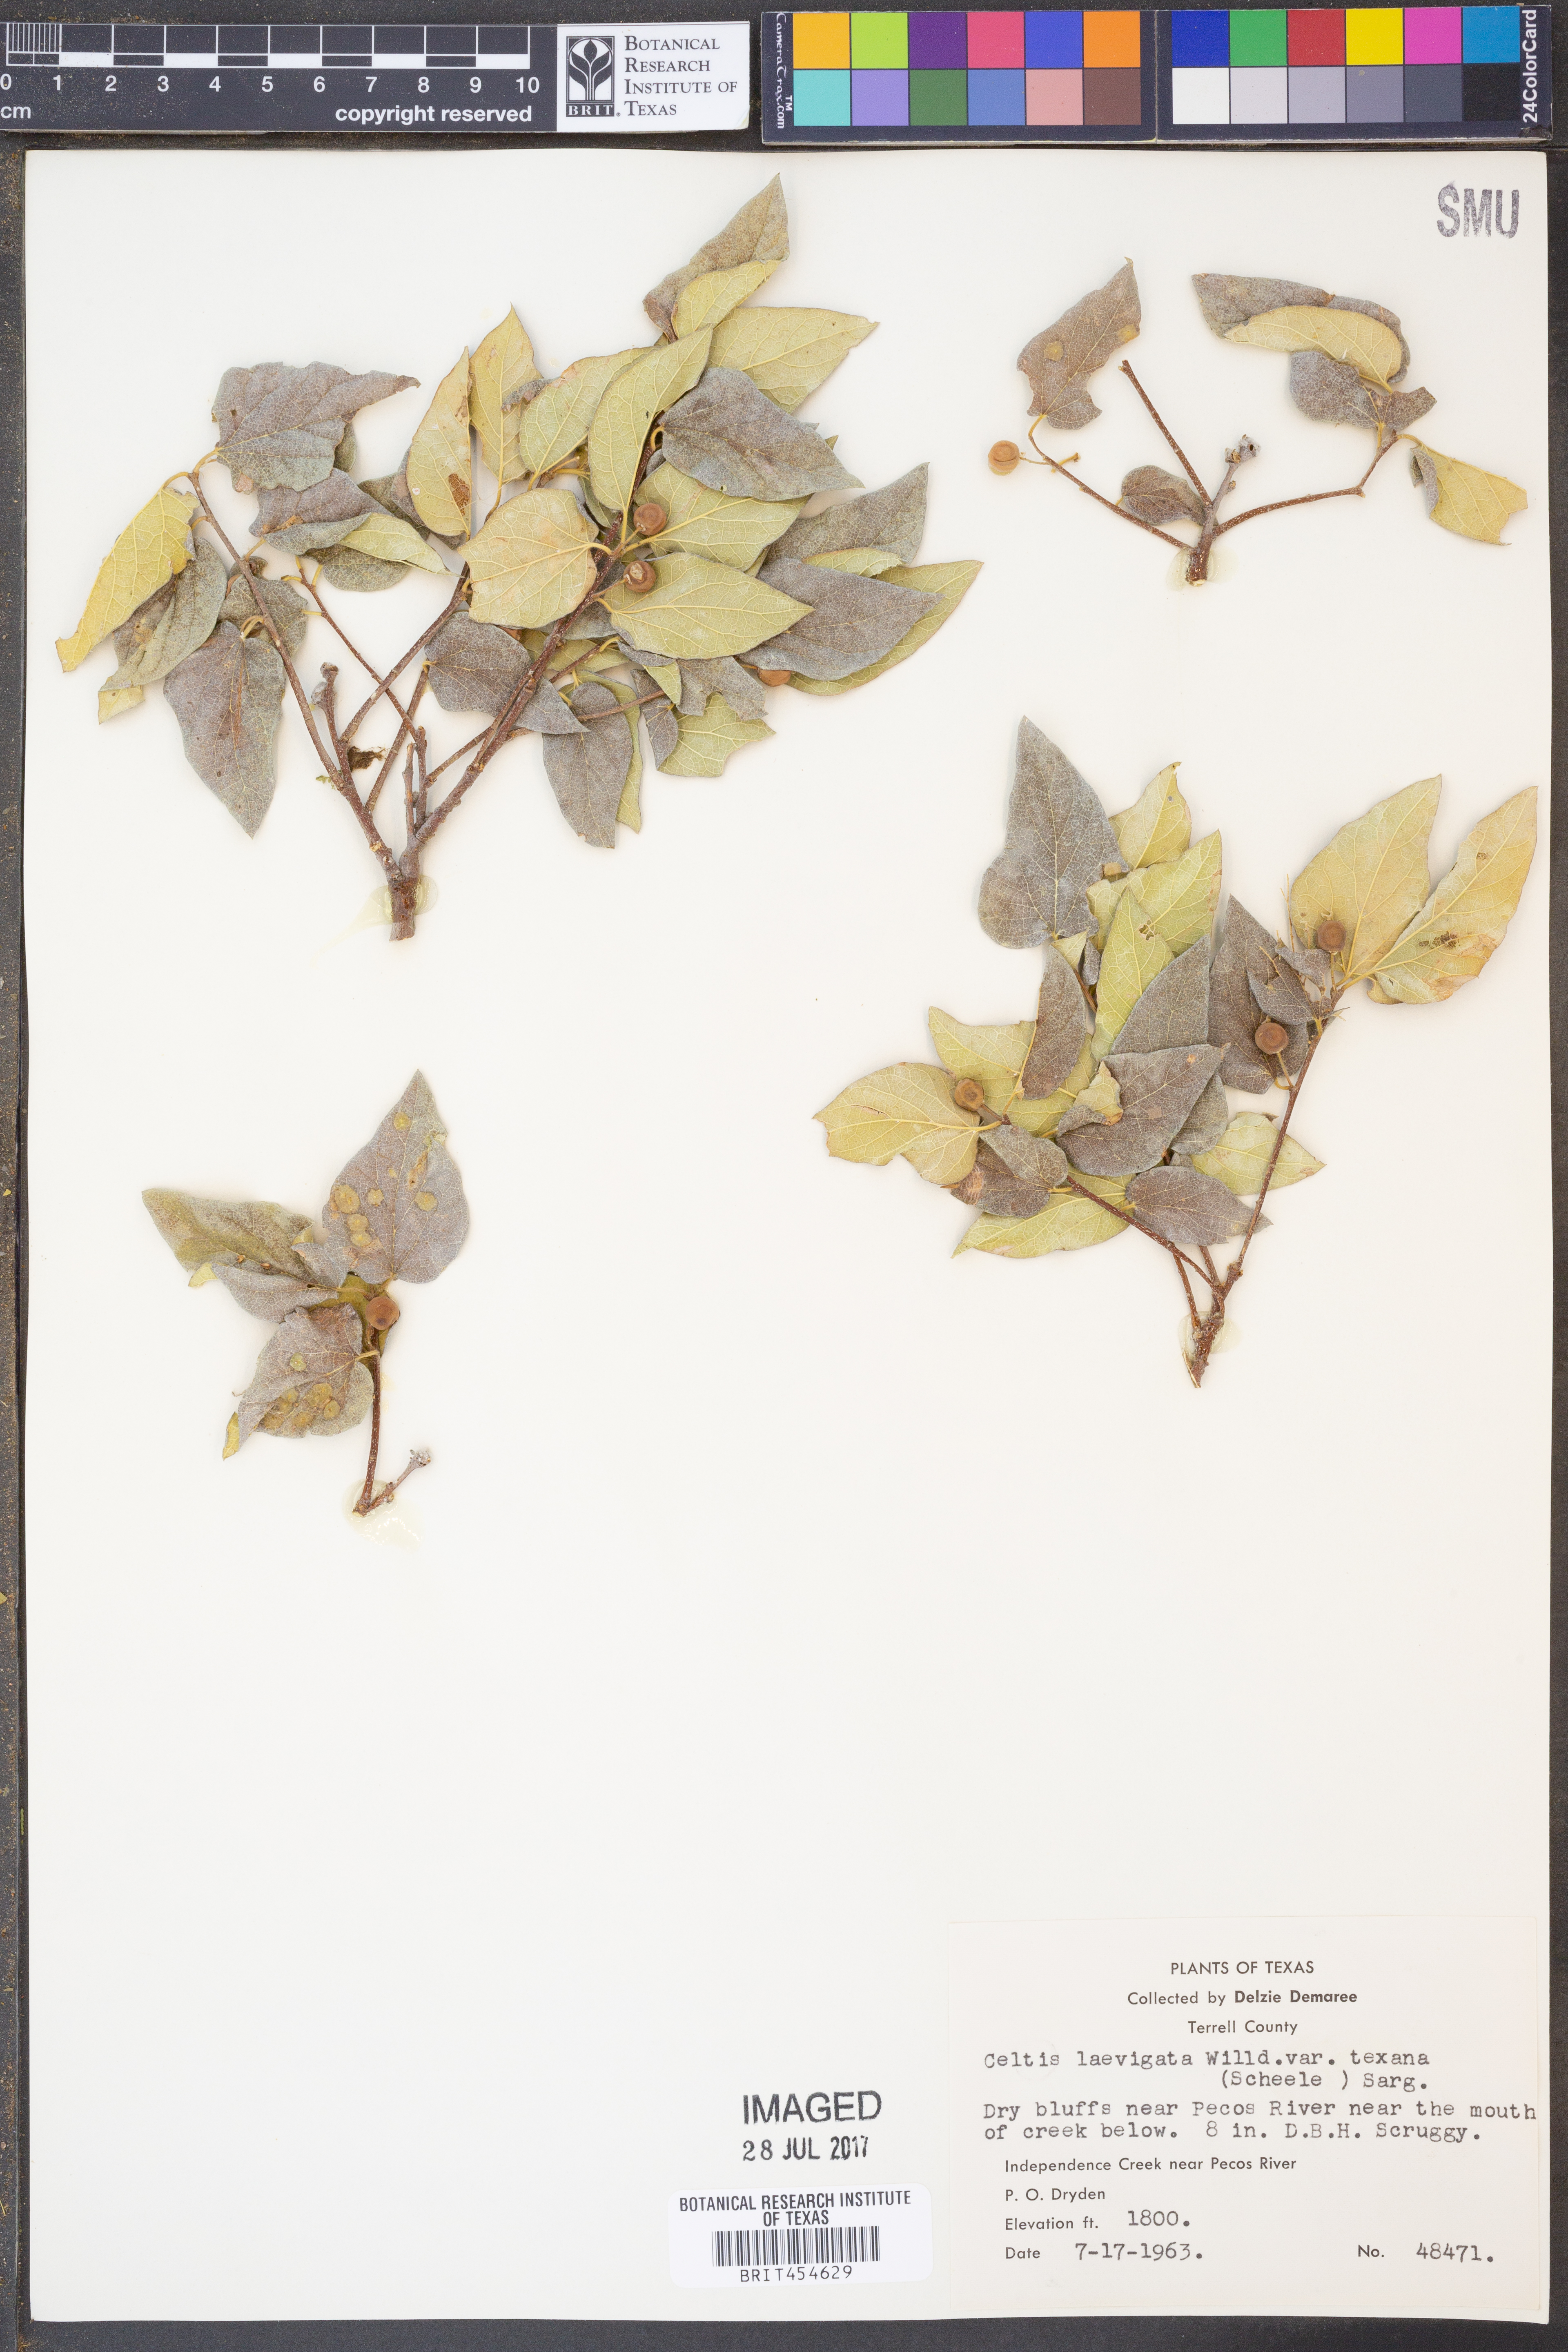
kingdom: Plantae
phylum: Tracheophyta
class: Magnoliopsida
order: Rosales
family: Cannabaceae
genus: Celtis
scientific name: Celtis laevigata
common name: Sugarberry
